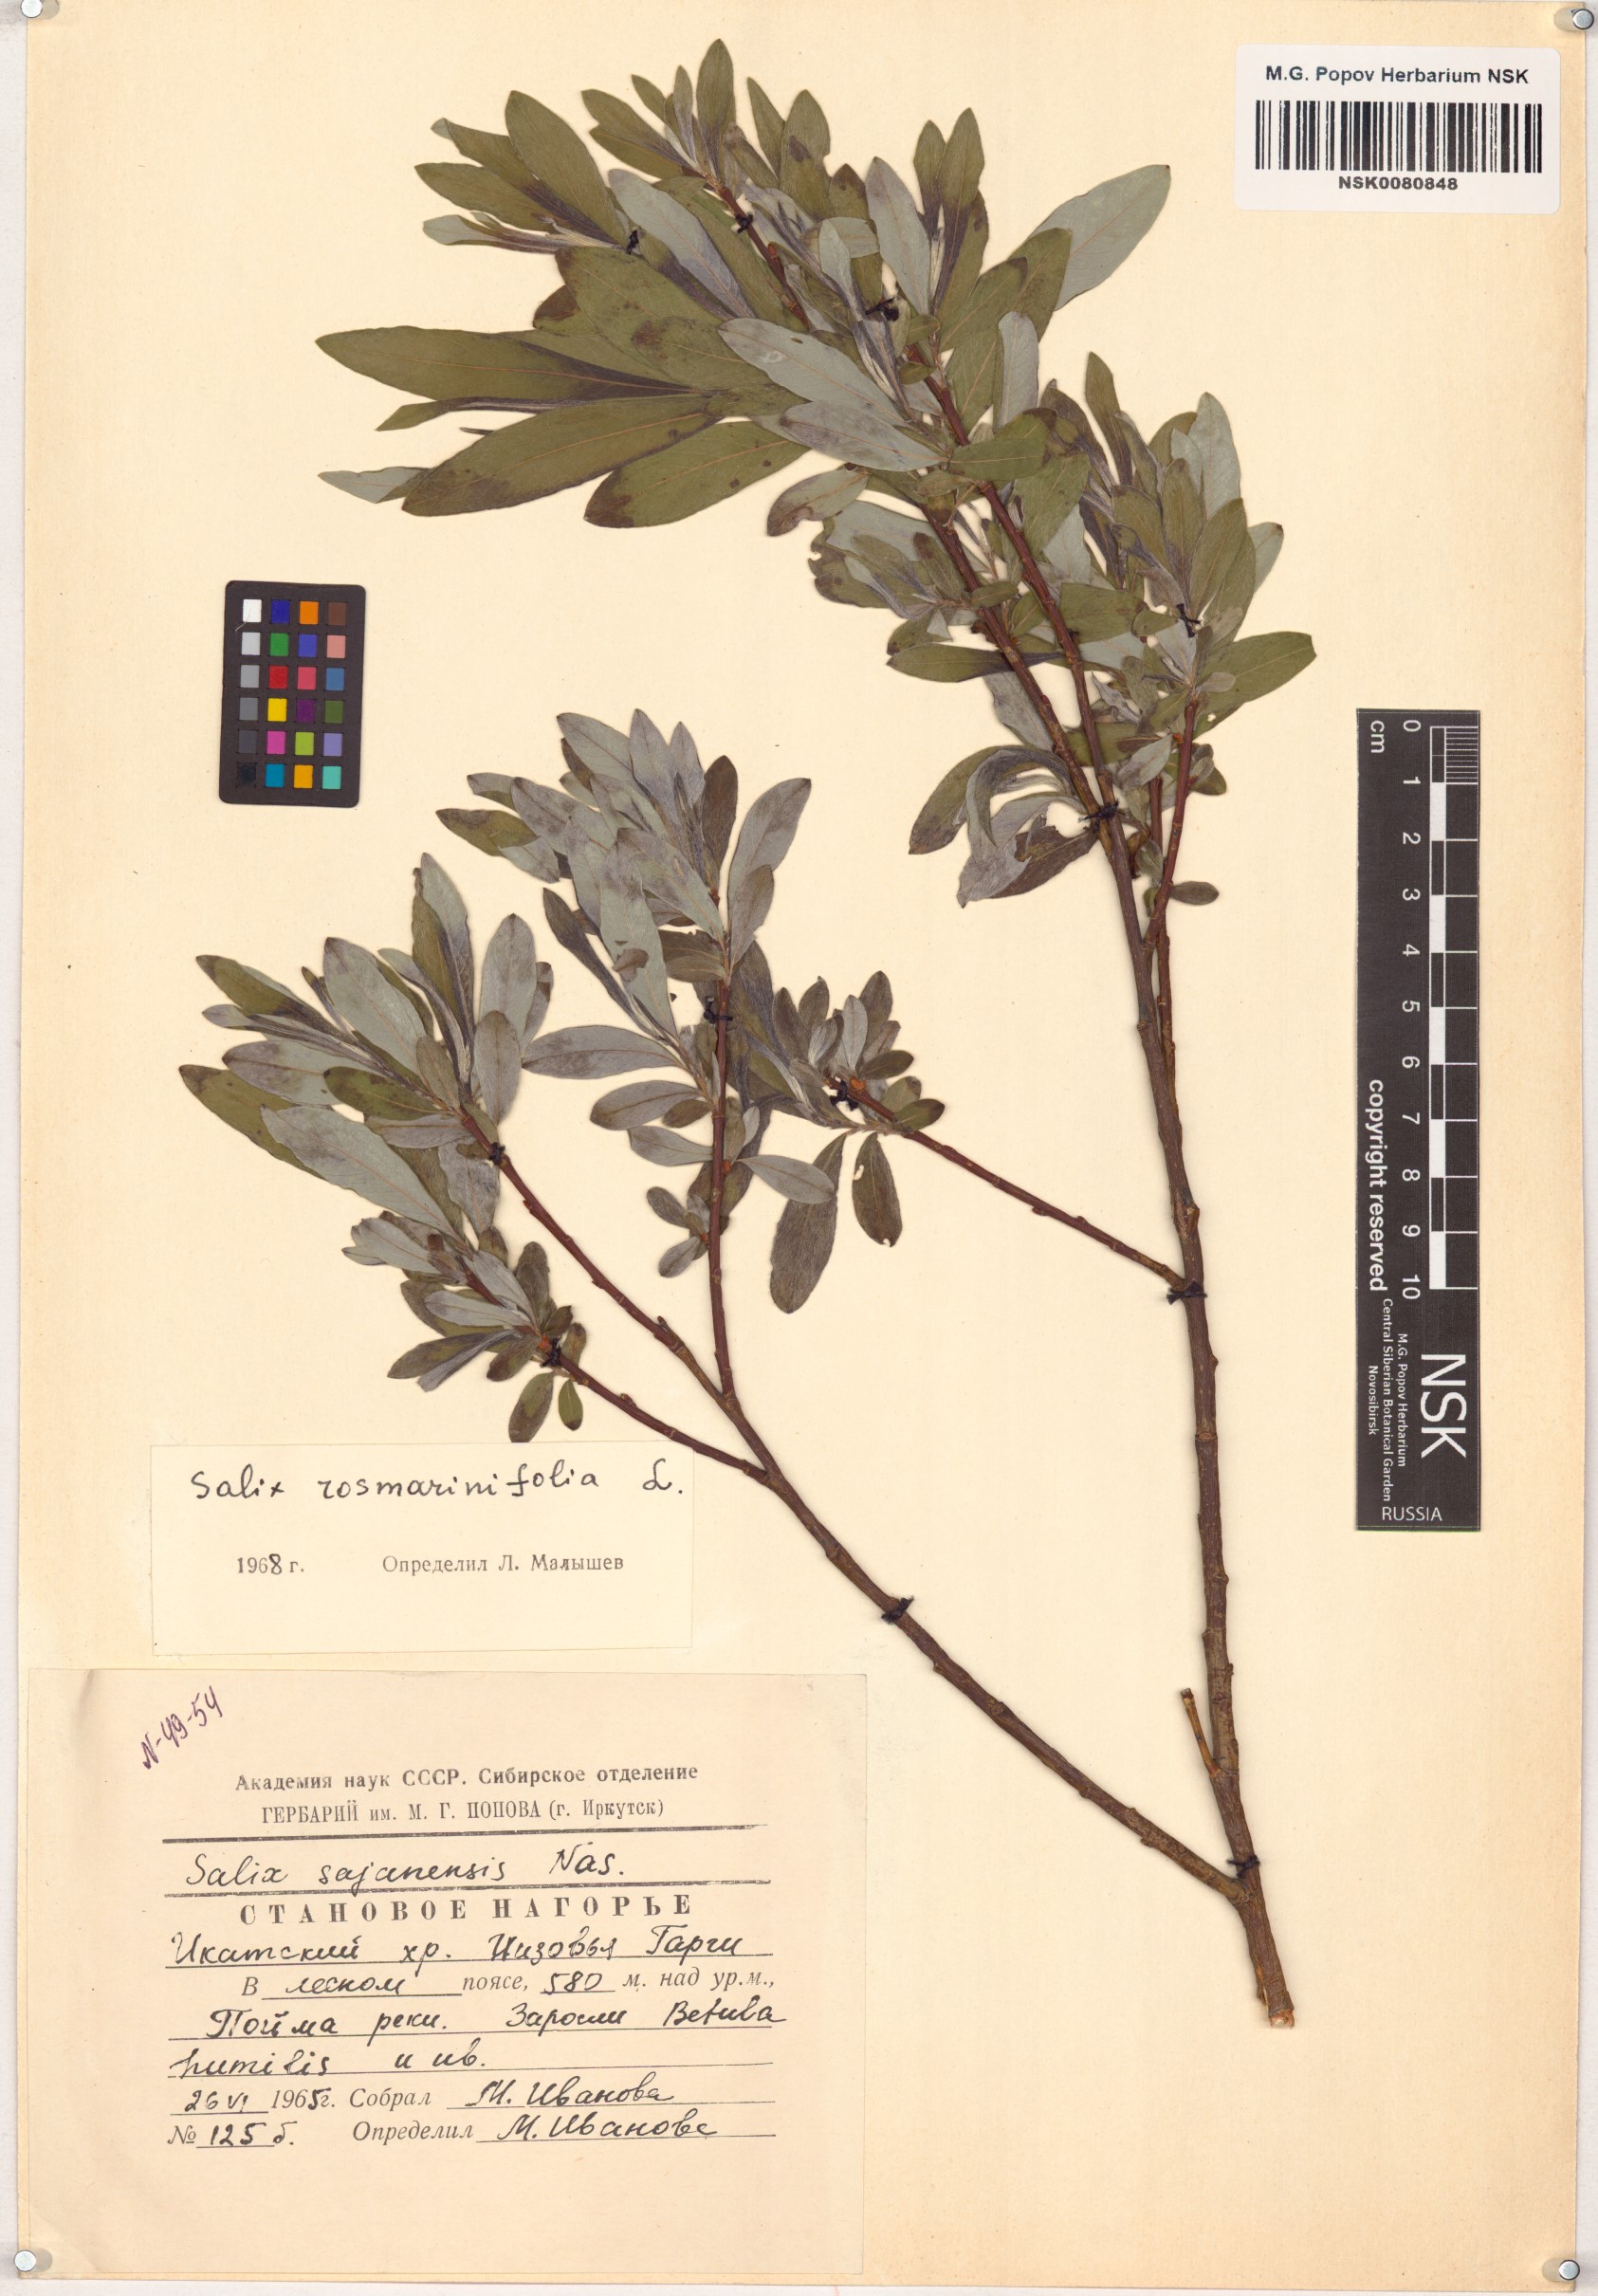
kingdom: Plantae
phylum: Tracheophyta
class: Magnoliopsida
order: Malpighiales
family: Salicaceae
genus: Salix
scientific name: Salix rosmarinifolia
